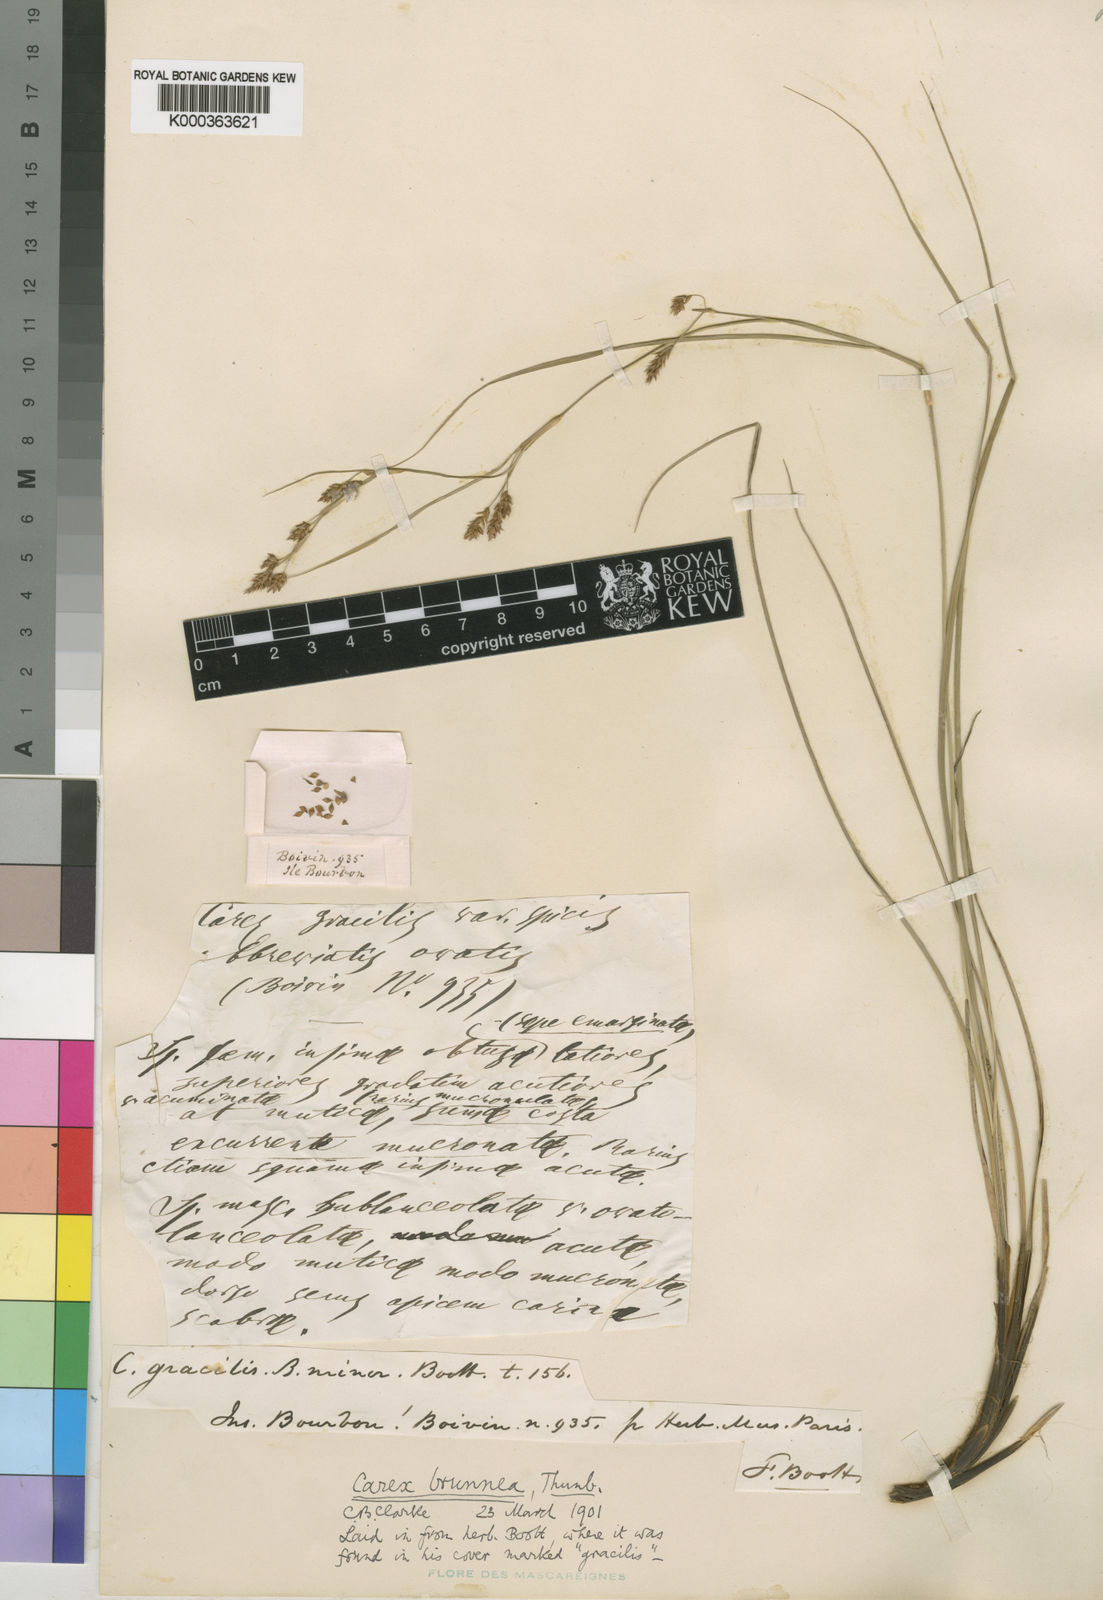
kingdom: Plantae
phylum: Tracheophyta
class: Liliopsida
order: Poales
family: Cyperaceae
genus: Carex
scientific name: Carex brunnea
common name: Greater brown sedge
